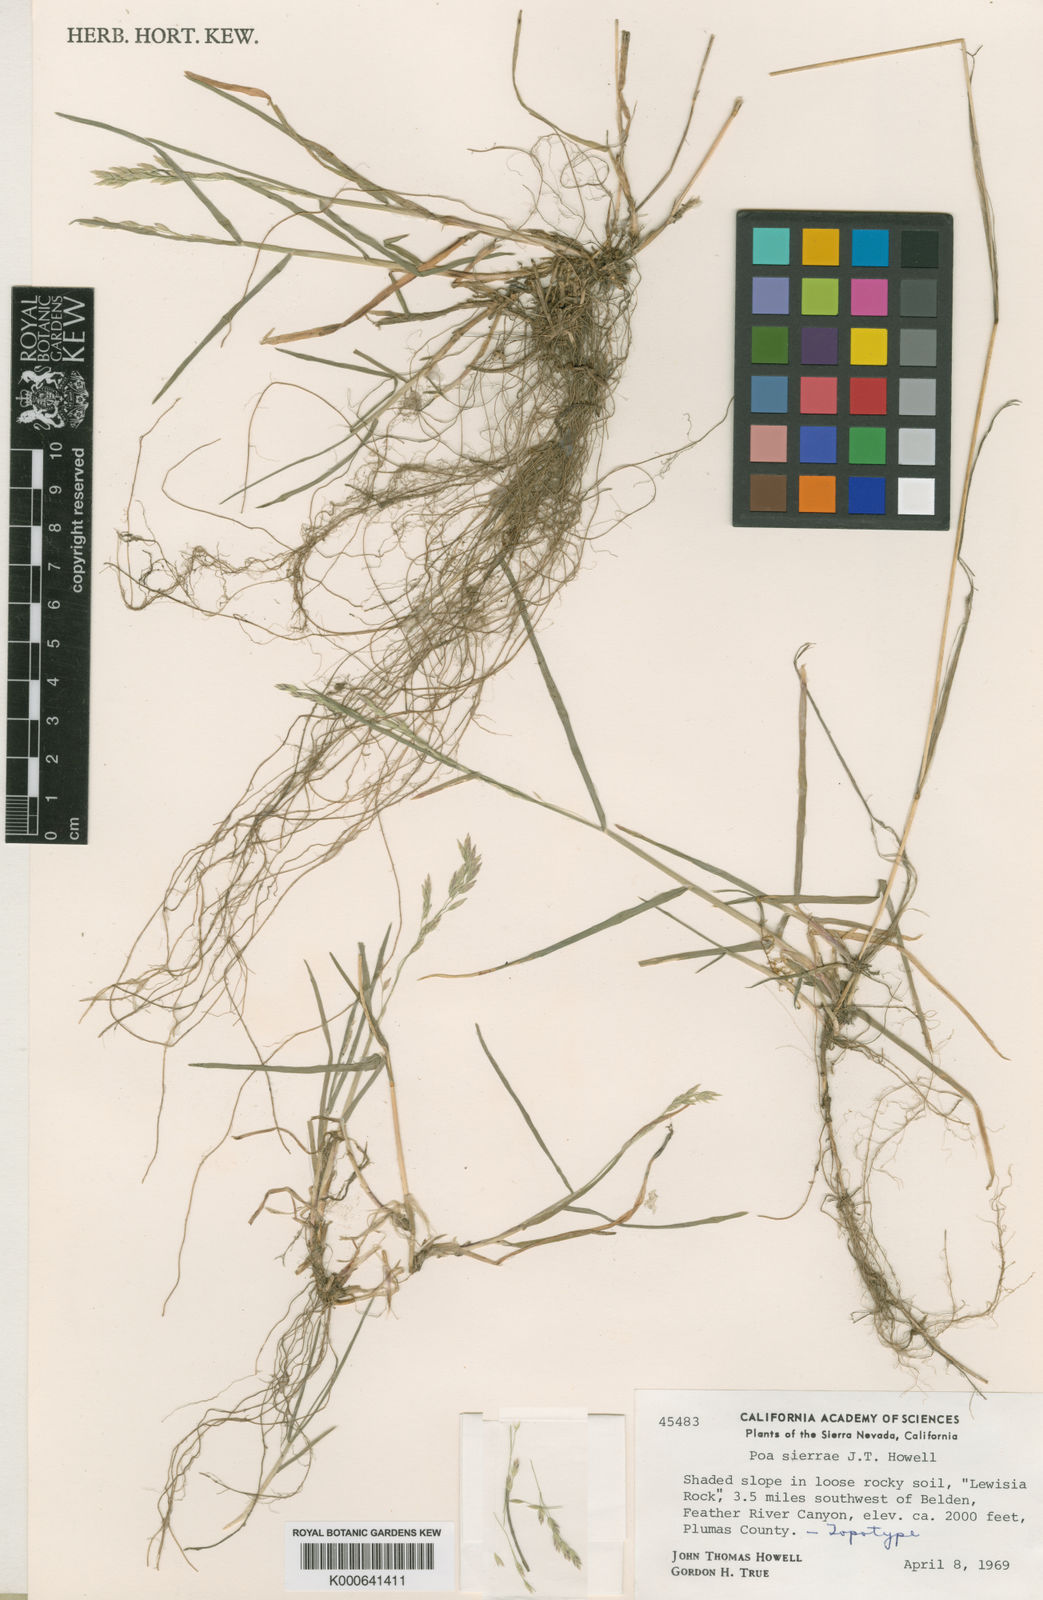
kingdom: Plantae
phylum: Tracheophyta
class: Liliopsida
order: Poales
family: Poaceae
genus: Poa
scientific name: Poa sierrae
